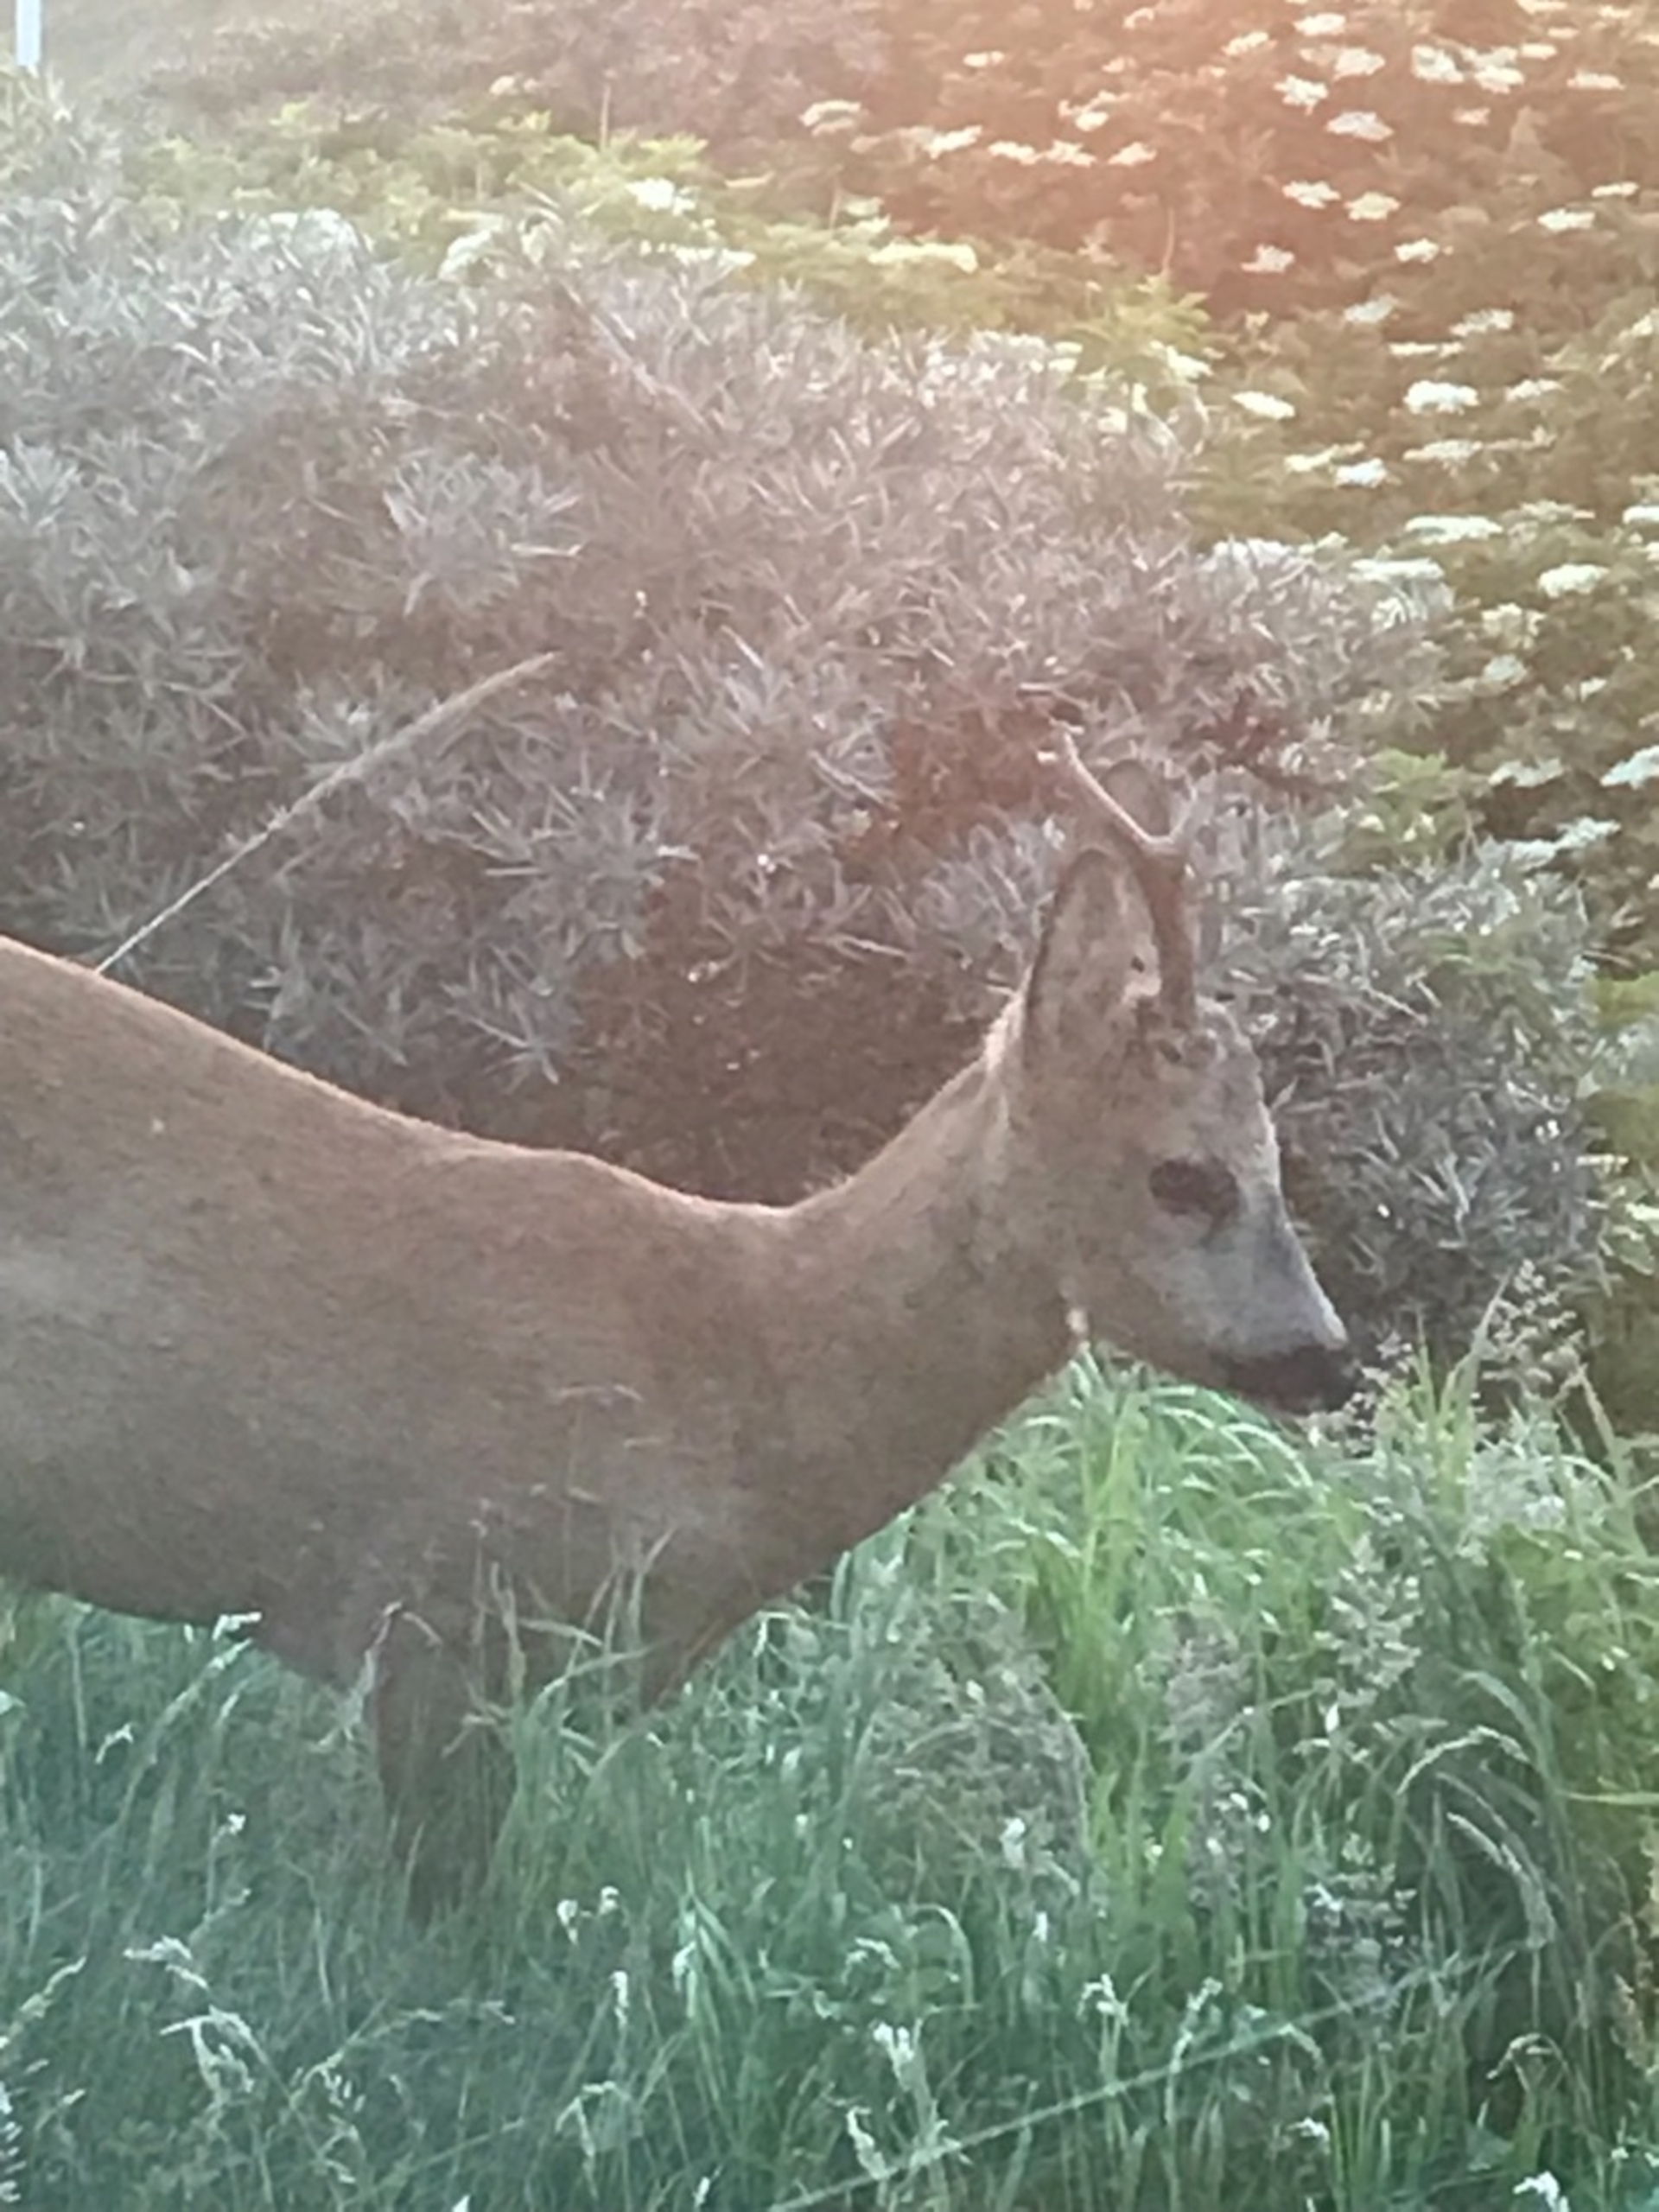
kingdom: Animalia
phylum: Chordata
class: Mammalia
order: Artiodactyla
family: Cervidae
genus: Capreolus
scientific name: Capreolus capreolus
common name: Rådyr
